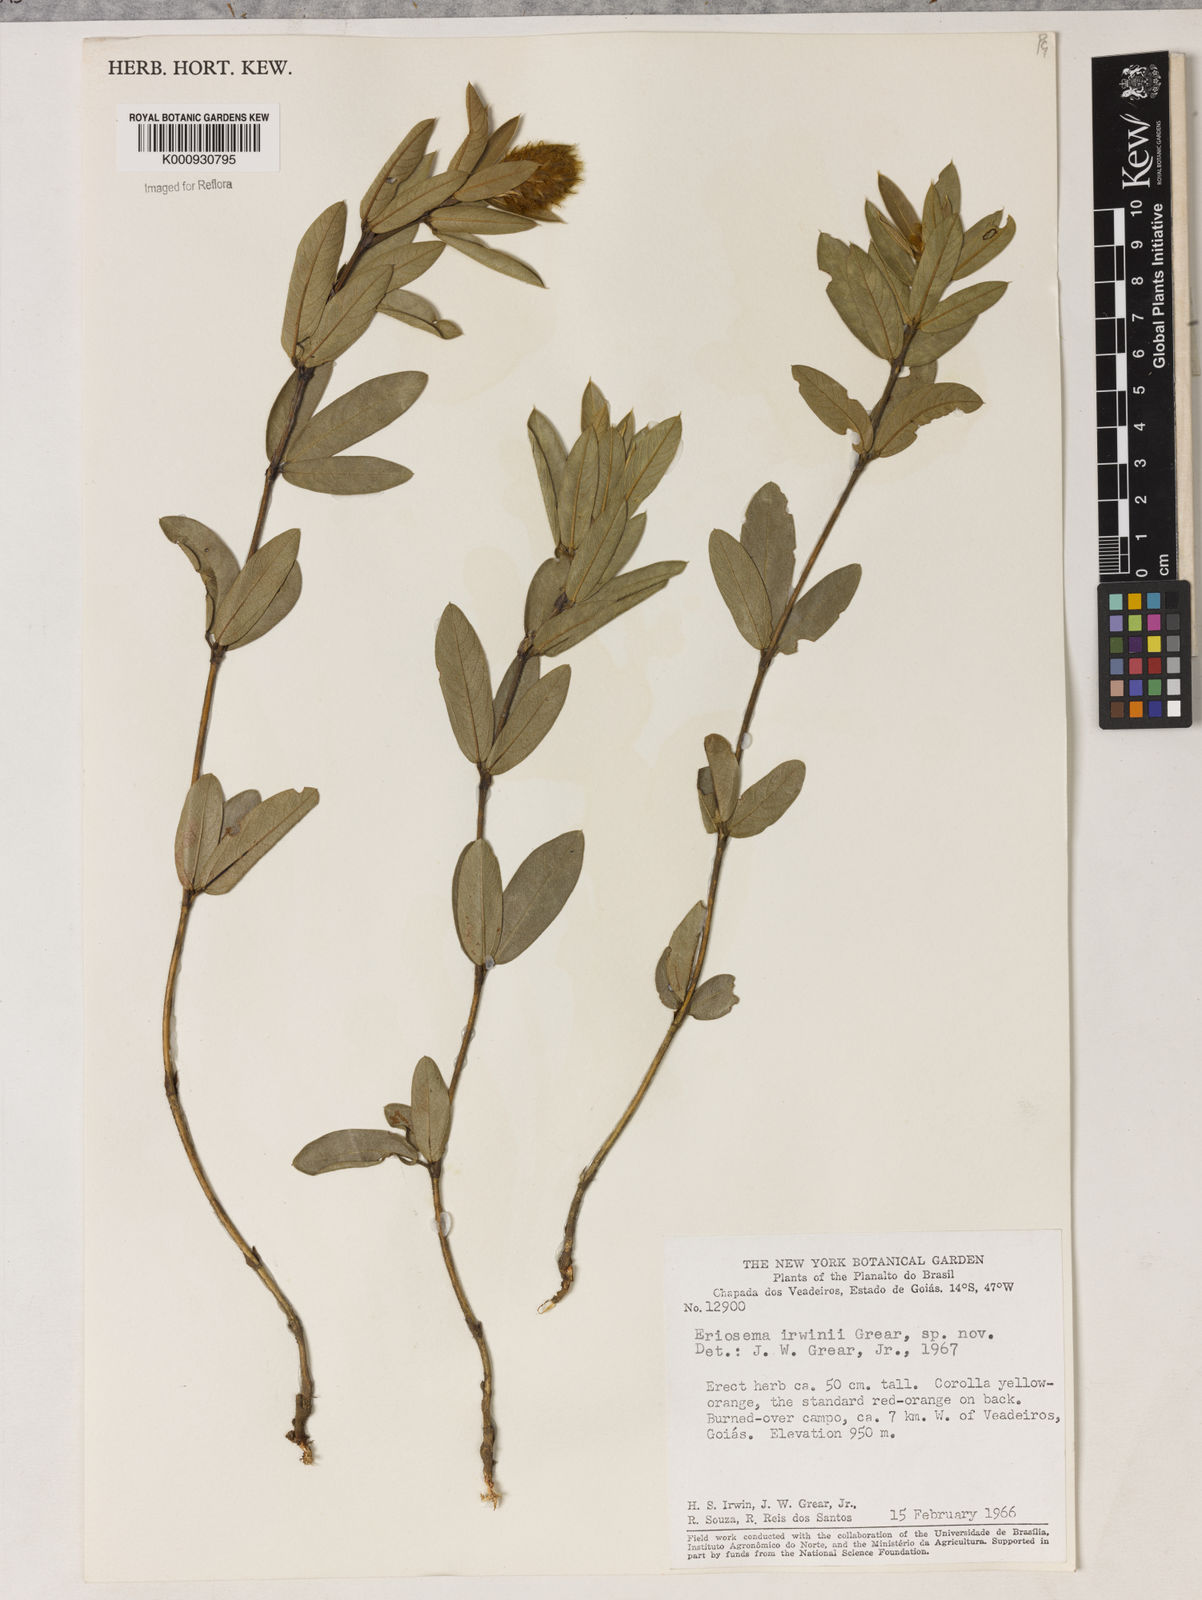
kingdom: Plantae
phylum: Tracheophyta
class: Magnoliopsida
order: Fabales
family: Fabaceae
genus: Eriosema
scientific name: Eriosema irwinii
